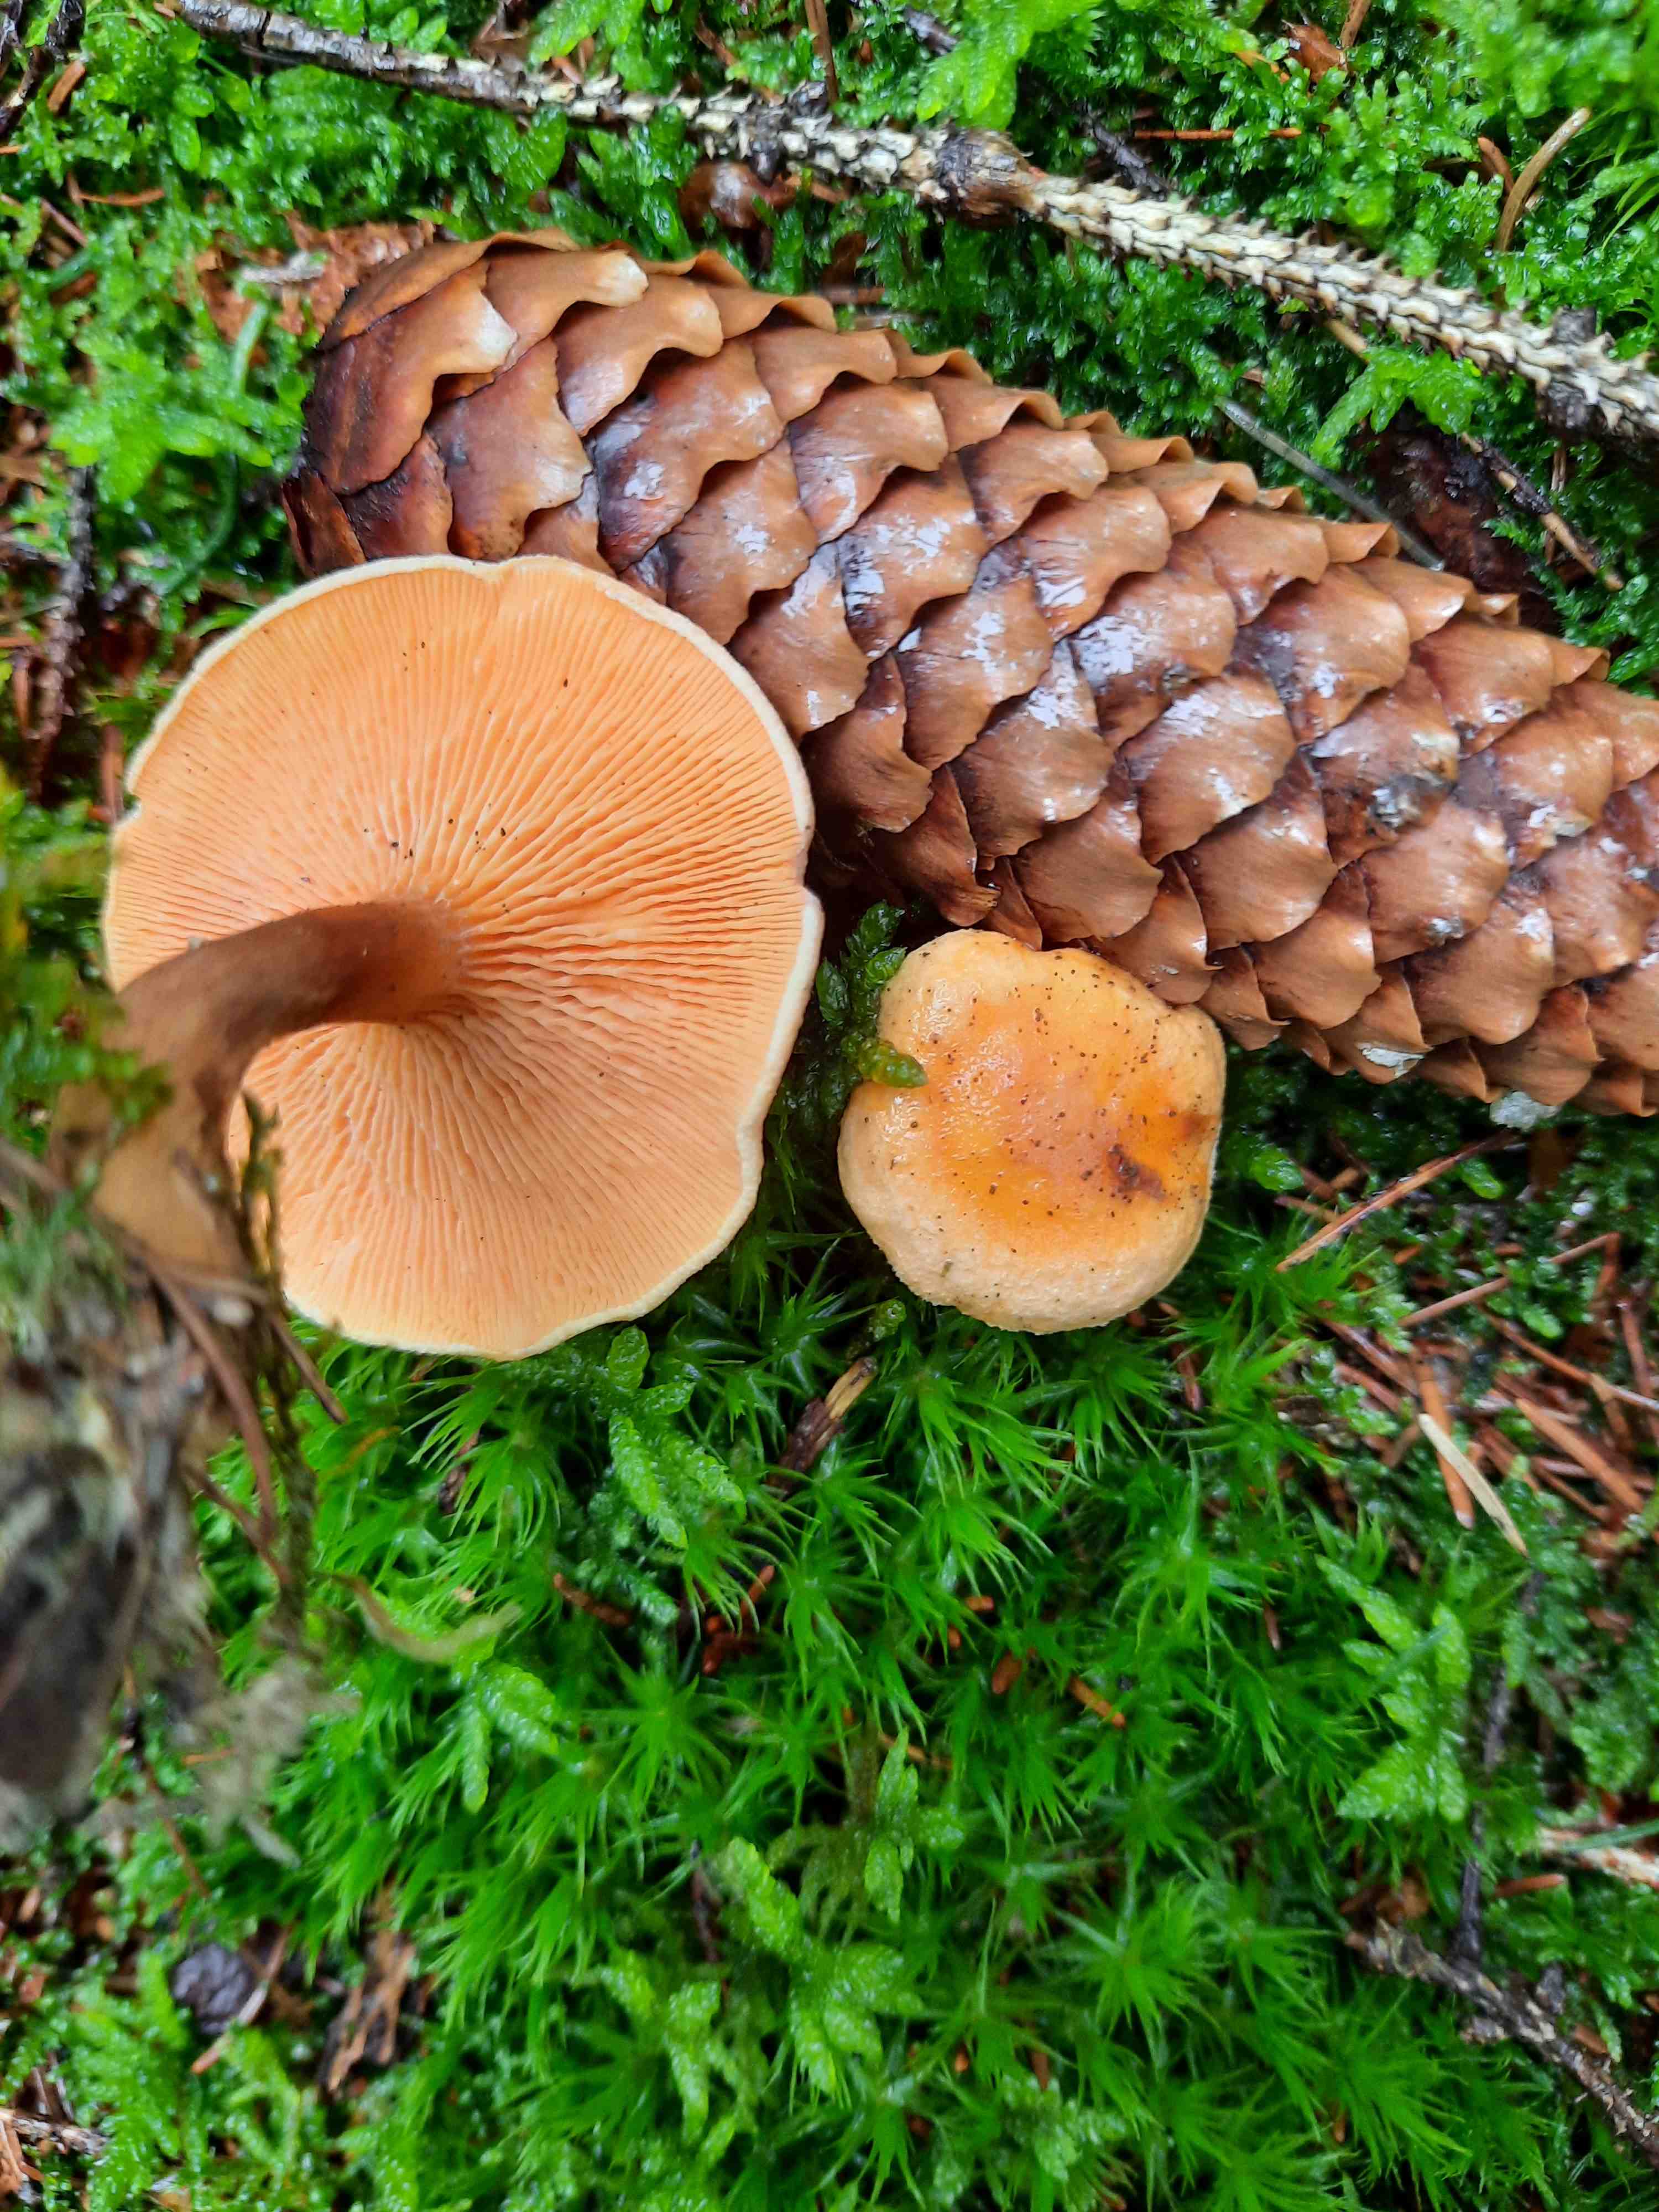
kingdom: Fungi
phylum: Basidiomycota
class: Agaricomycetes
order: Boletales
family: Hygrophoropsidaceae
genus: Hygrophoropsis
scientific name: Hygrophoropsis aurantiaca
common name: almindelig orangekantarel
